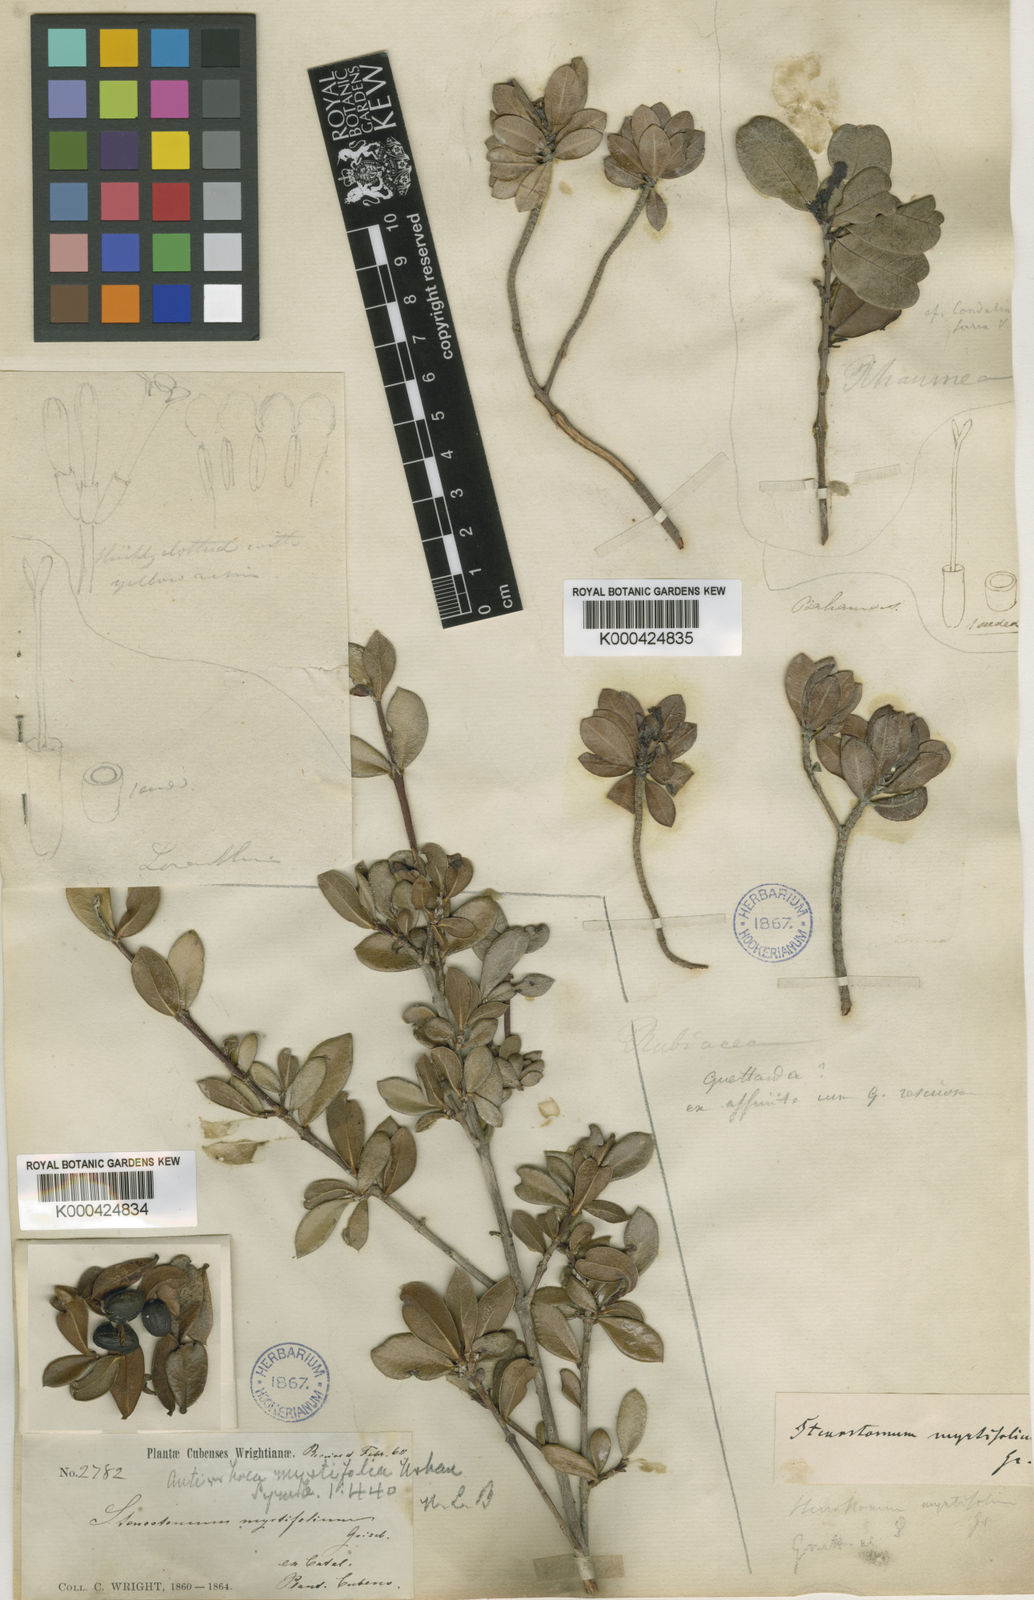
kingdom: Plantae
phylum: Tracheophyta
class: Magnoliopsida
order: Gentianales
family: Rubiaceae
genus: Stenostomum
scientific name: Stenostomum myrtifolium
